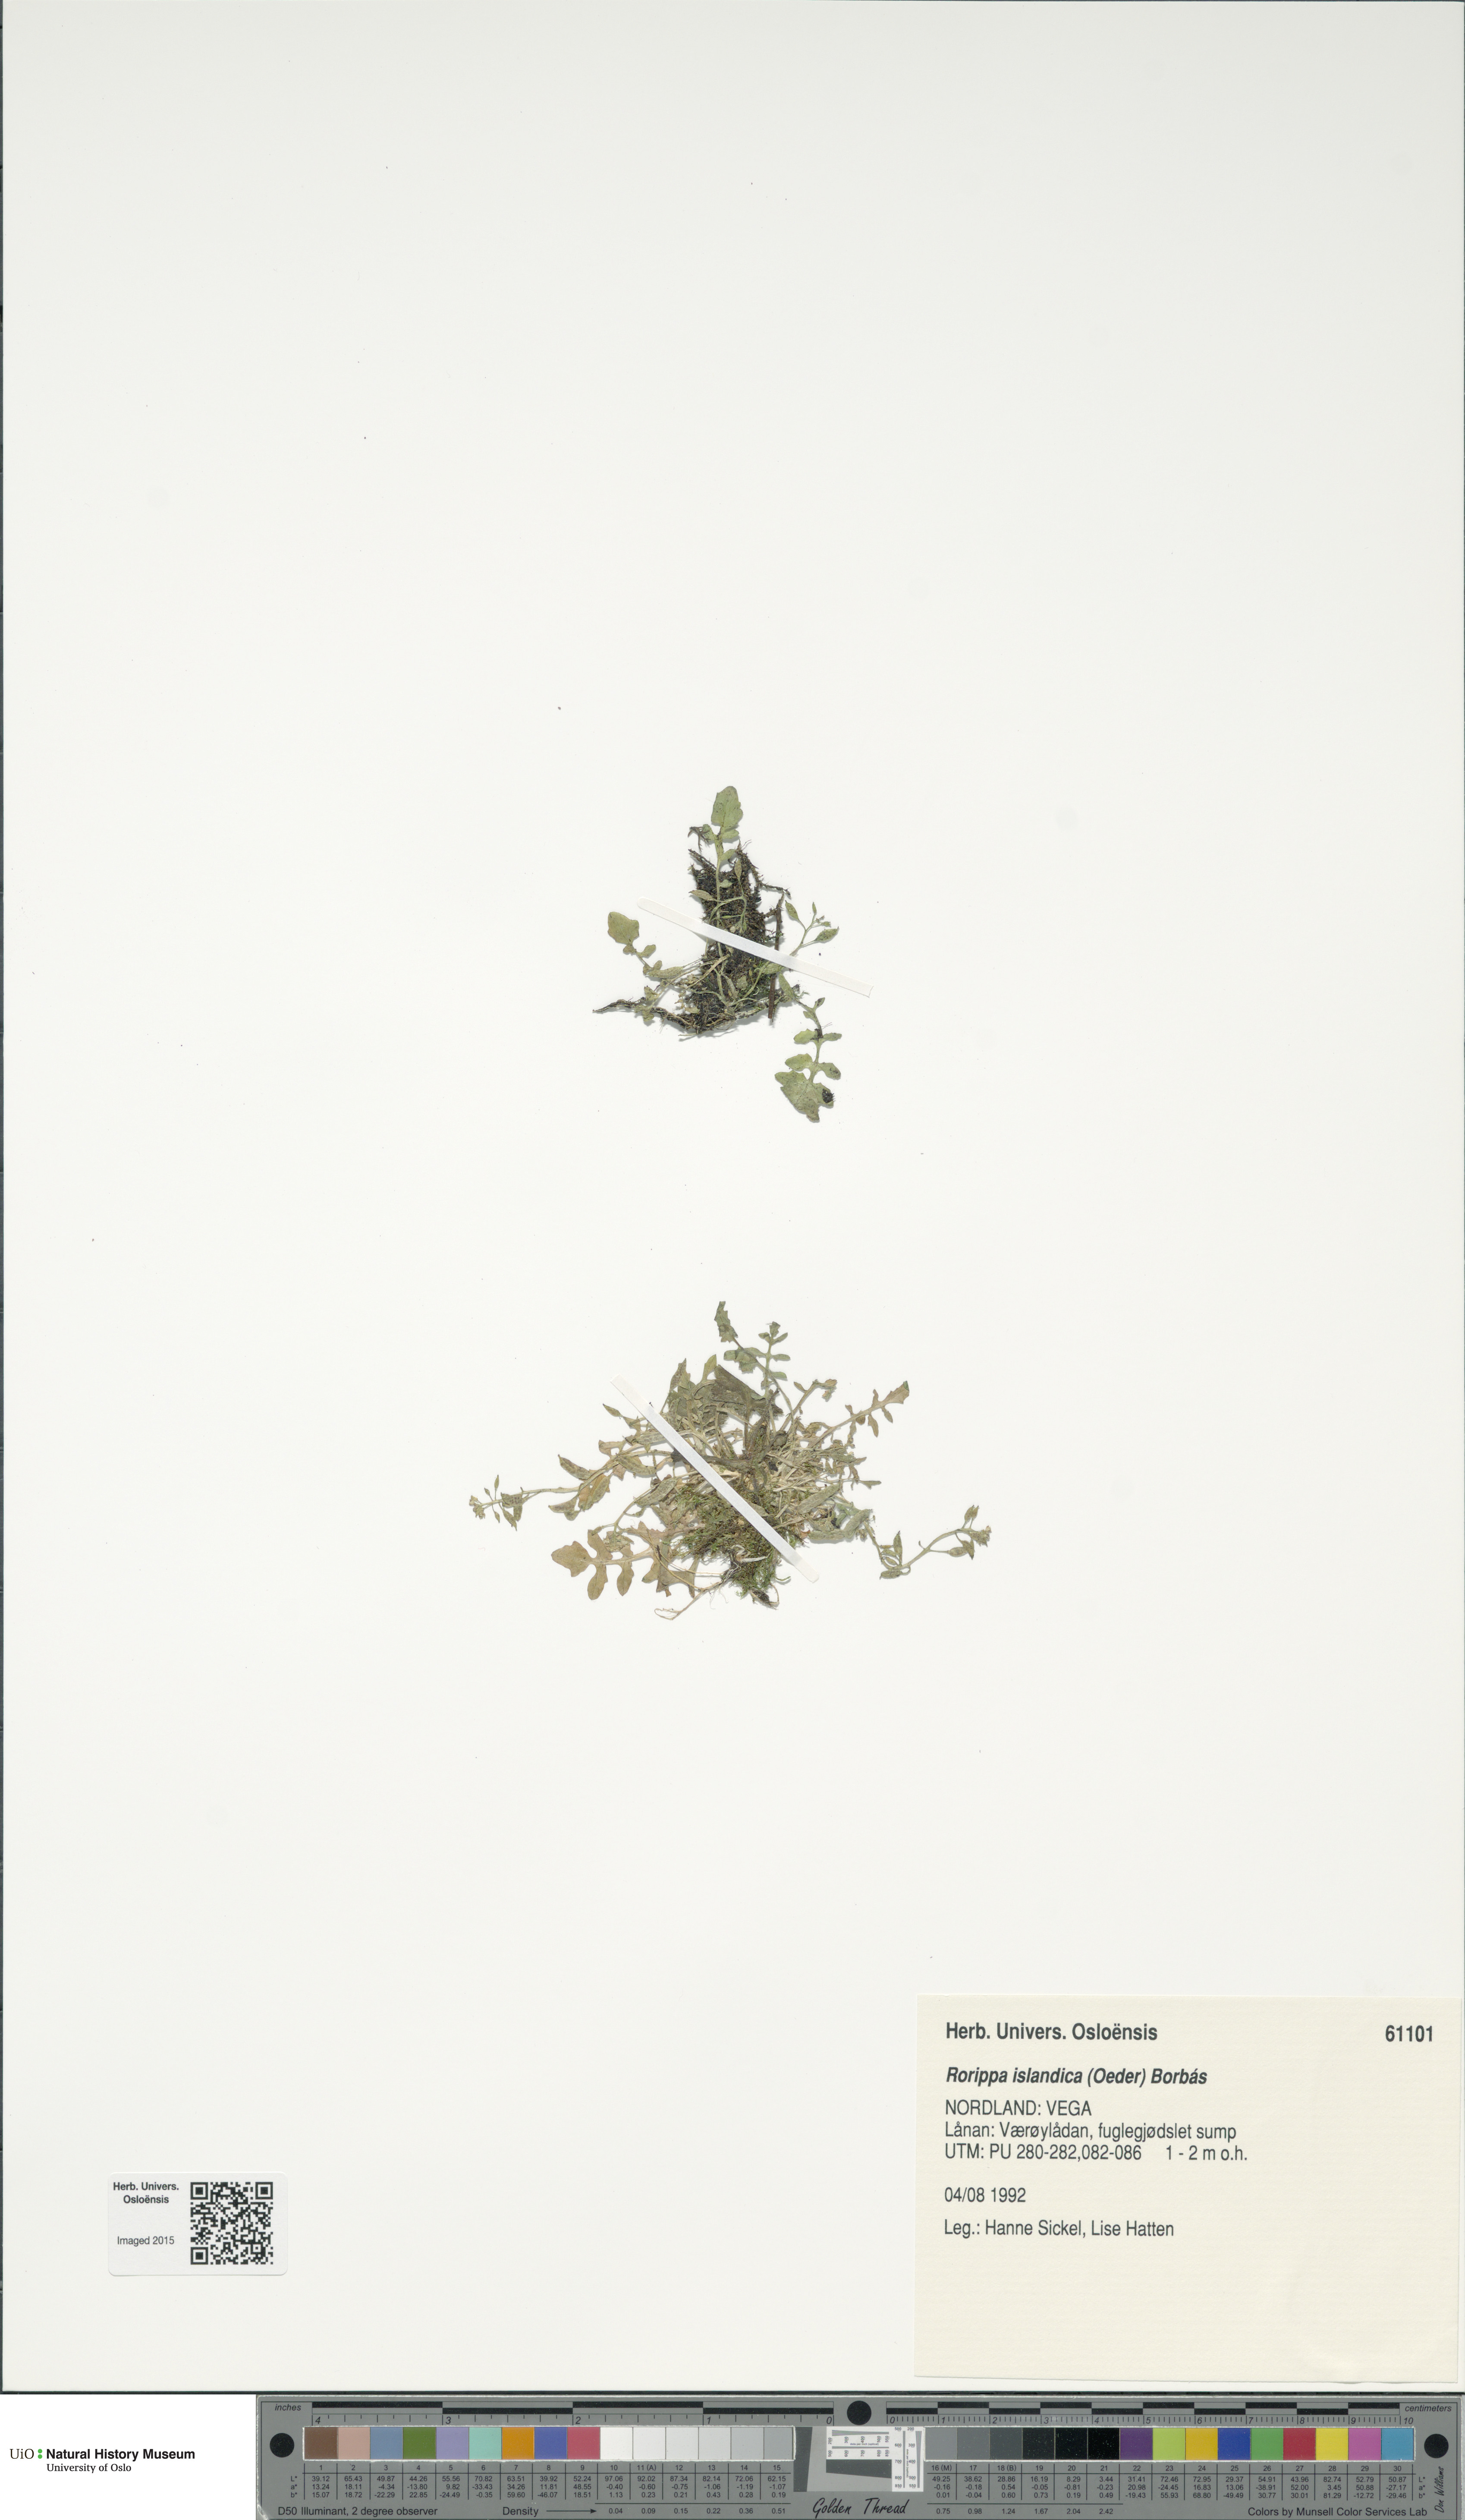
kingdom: Plantae
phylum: Tracheophyta
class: Magnoliopsida
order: Brassicales
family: Brassicaceae
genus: Rorippa
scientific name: Rorippa islandica
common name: Marsh cress
